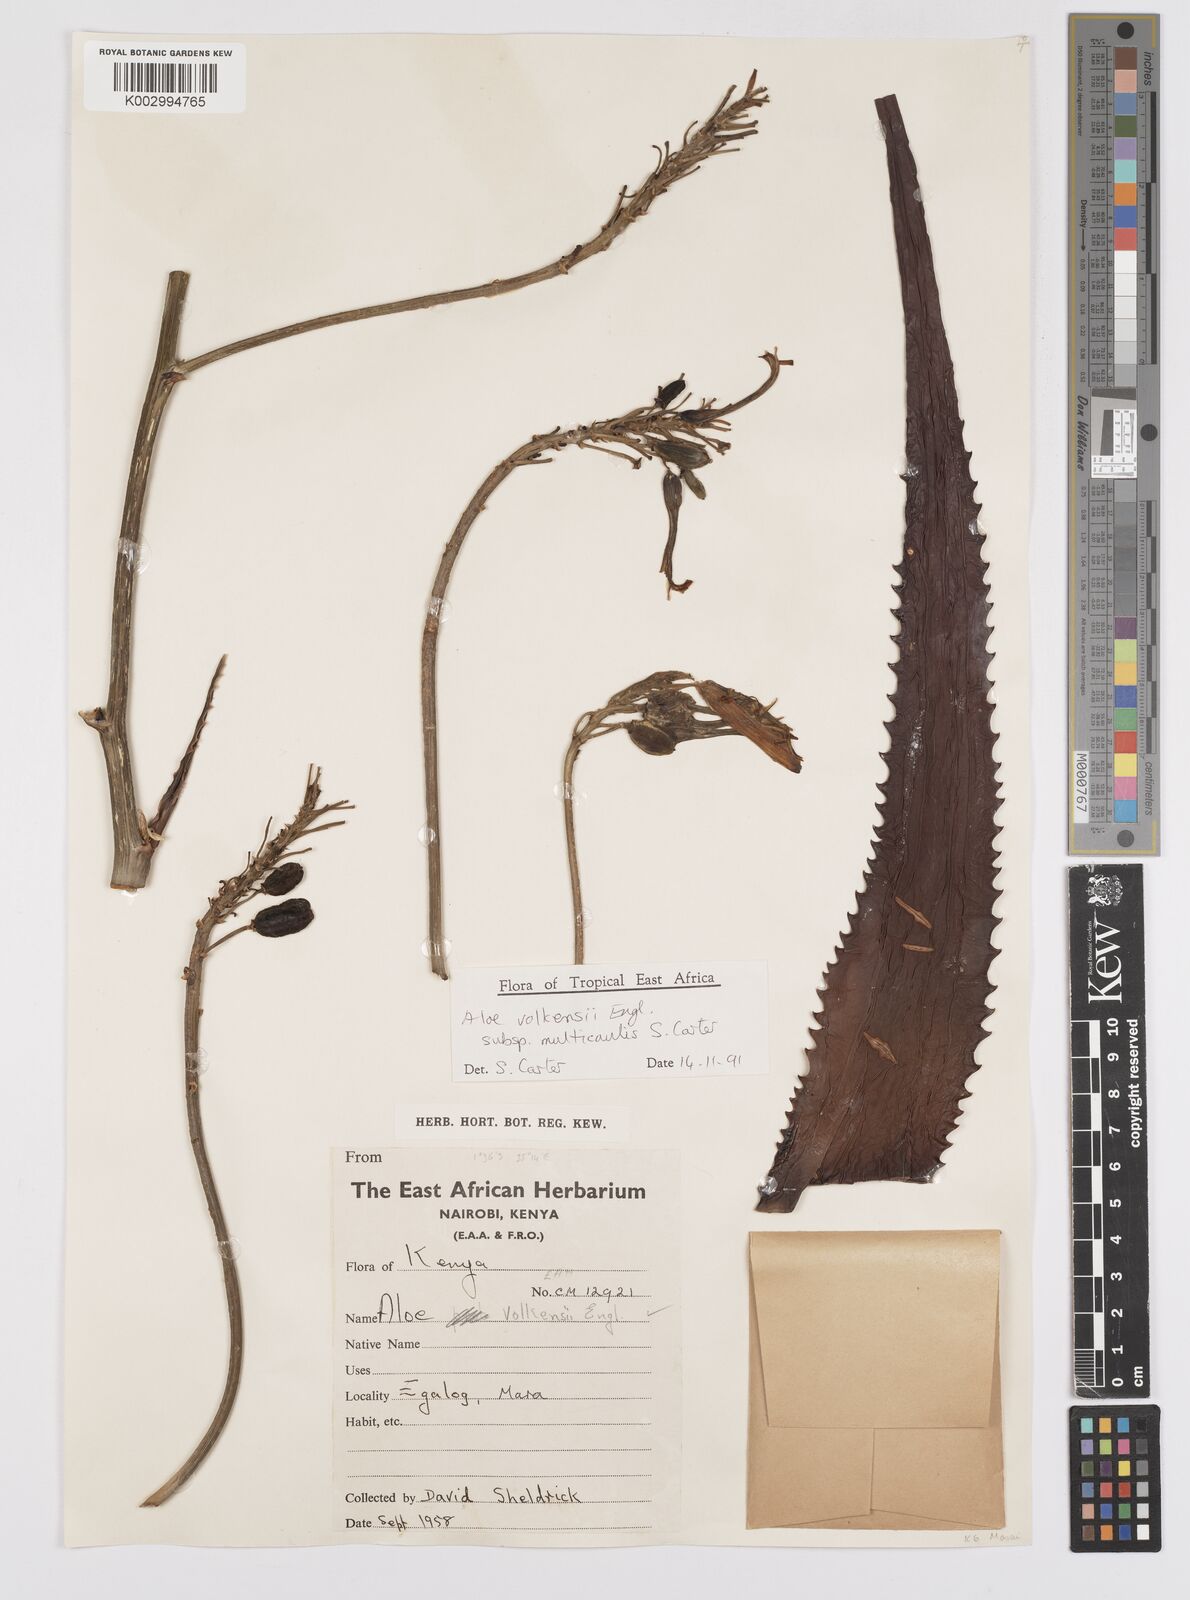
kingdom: Plantae
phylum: Tracheophyta
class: Liliopsida
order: Asparagales
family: Asphodelaceae
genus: Aloe
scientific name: Aloe volkensii
